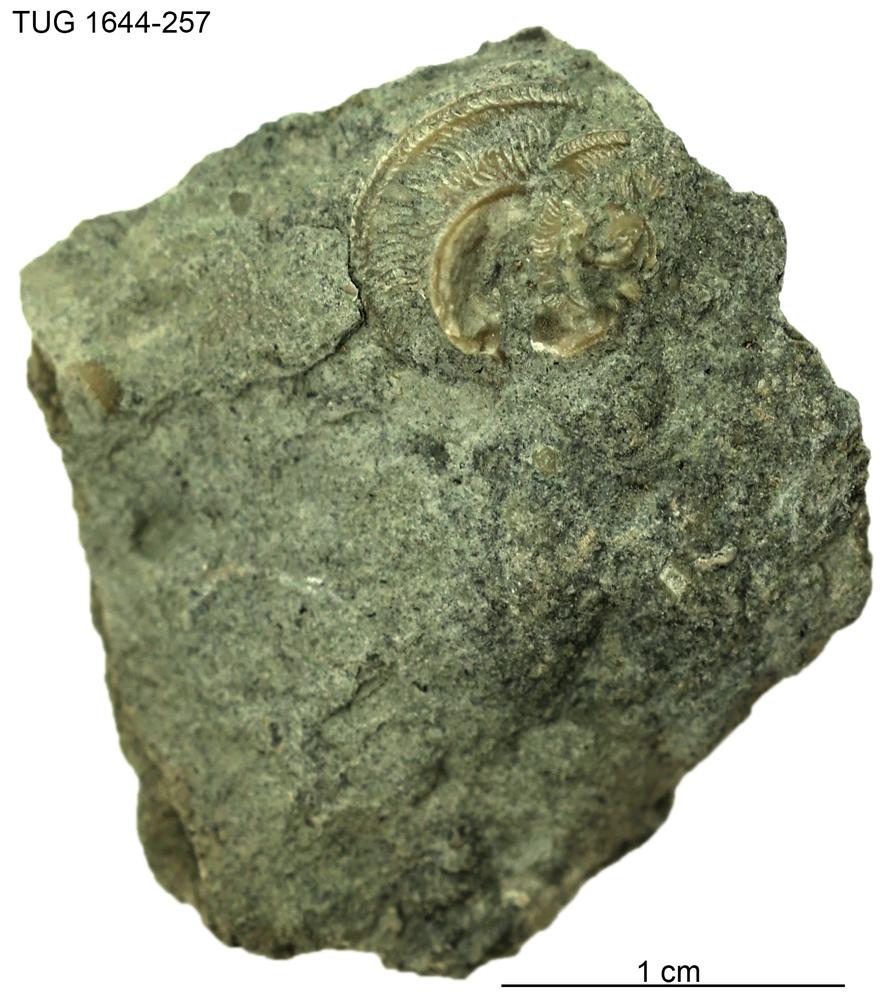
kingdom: Animalia
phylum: Mollusca
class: Gastropoda
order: Pleurotomariida
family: Phanerotrematidae
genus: Brachytomaria
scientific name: Brachytomaria Pleurotomaria baltica
